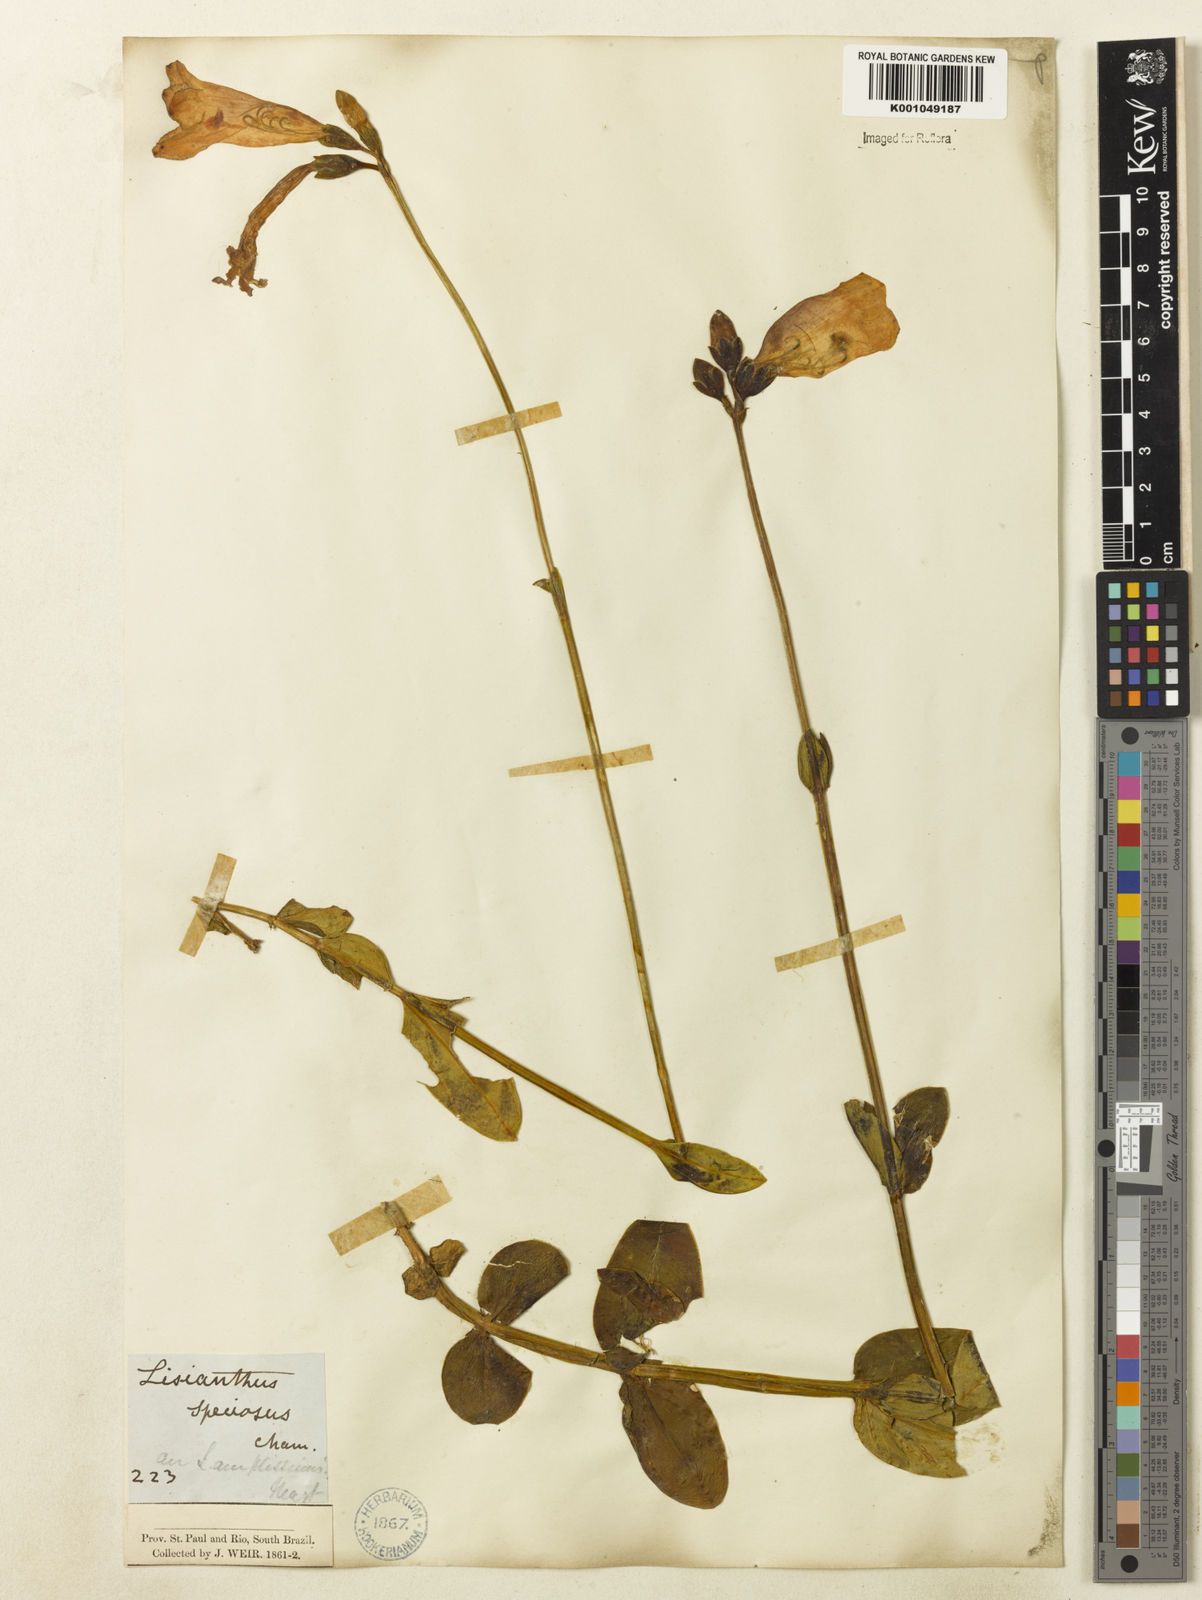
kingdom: Plantae
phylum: Tracheophyta
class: Magnoliopsida
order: Gentianales
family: Gentianaceae
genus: Calolisianthus
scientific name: Calolisianthus amplissimus
